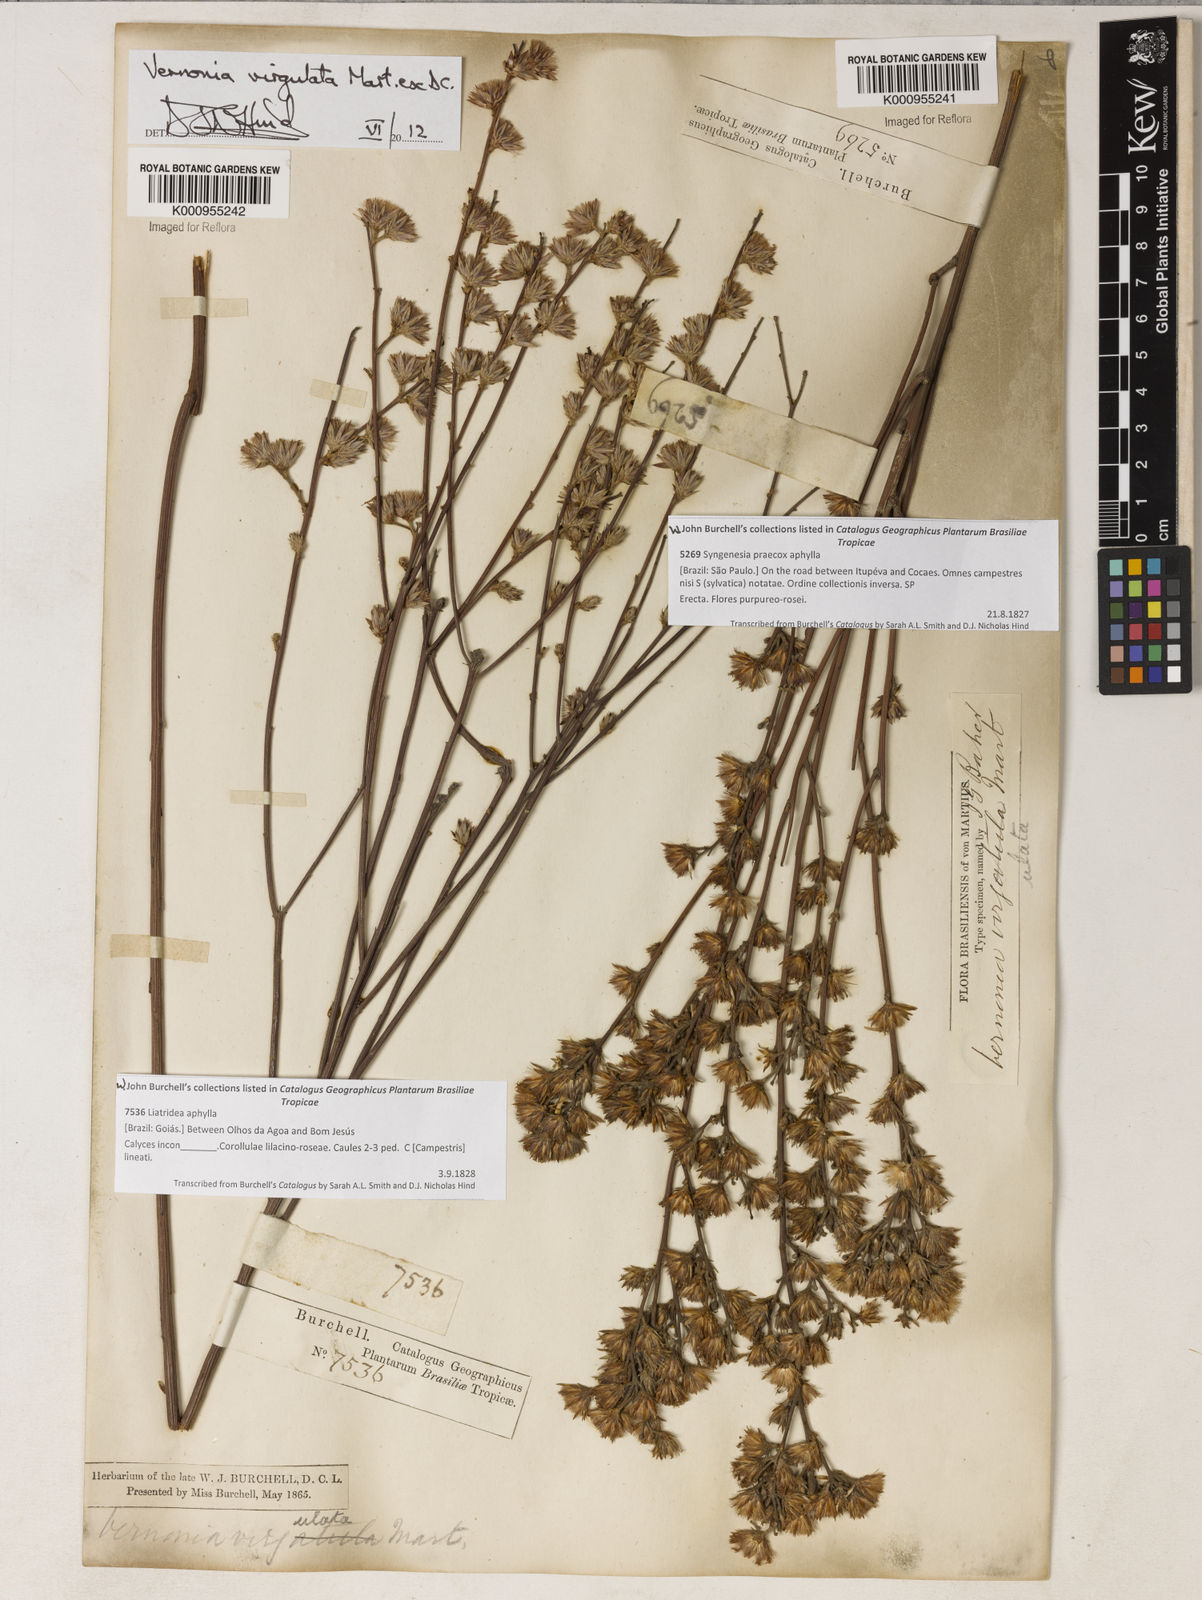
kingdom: Plantae
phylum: Tracheophyta
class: Magnoliopsida
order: Asterales
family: Asteraceae
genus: Lessingianthus
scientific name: Lessingianthus virgulatus
